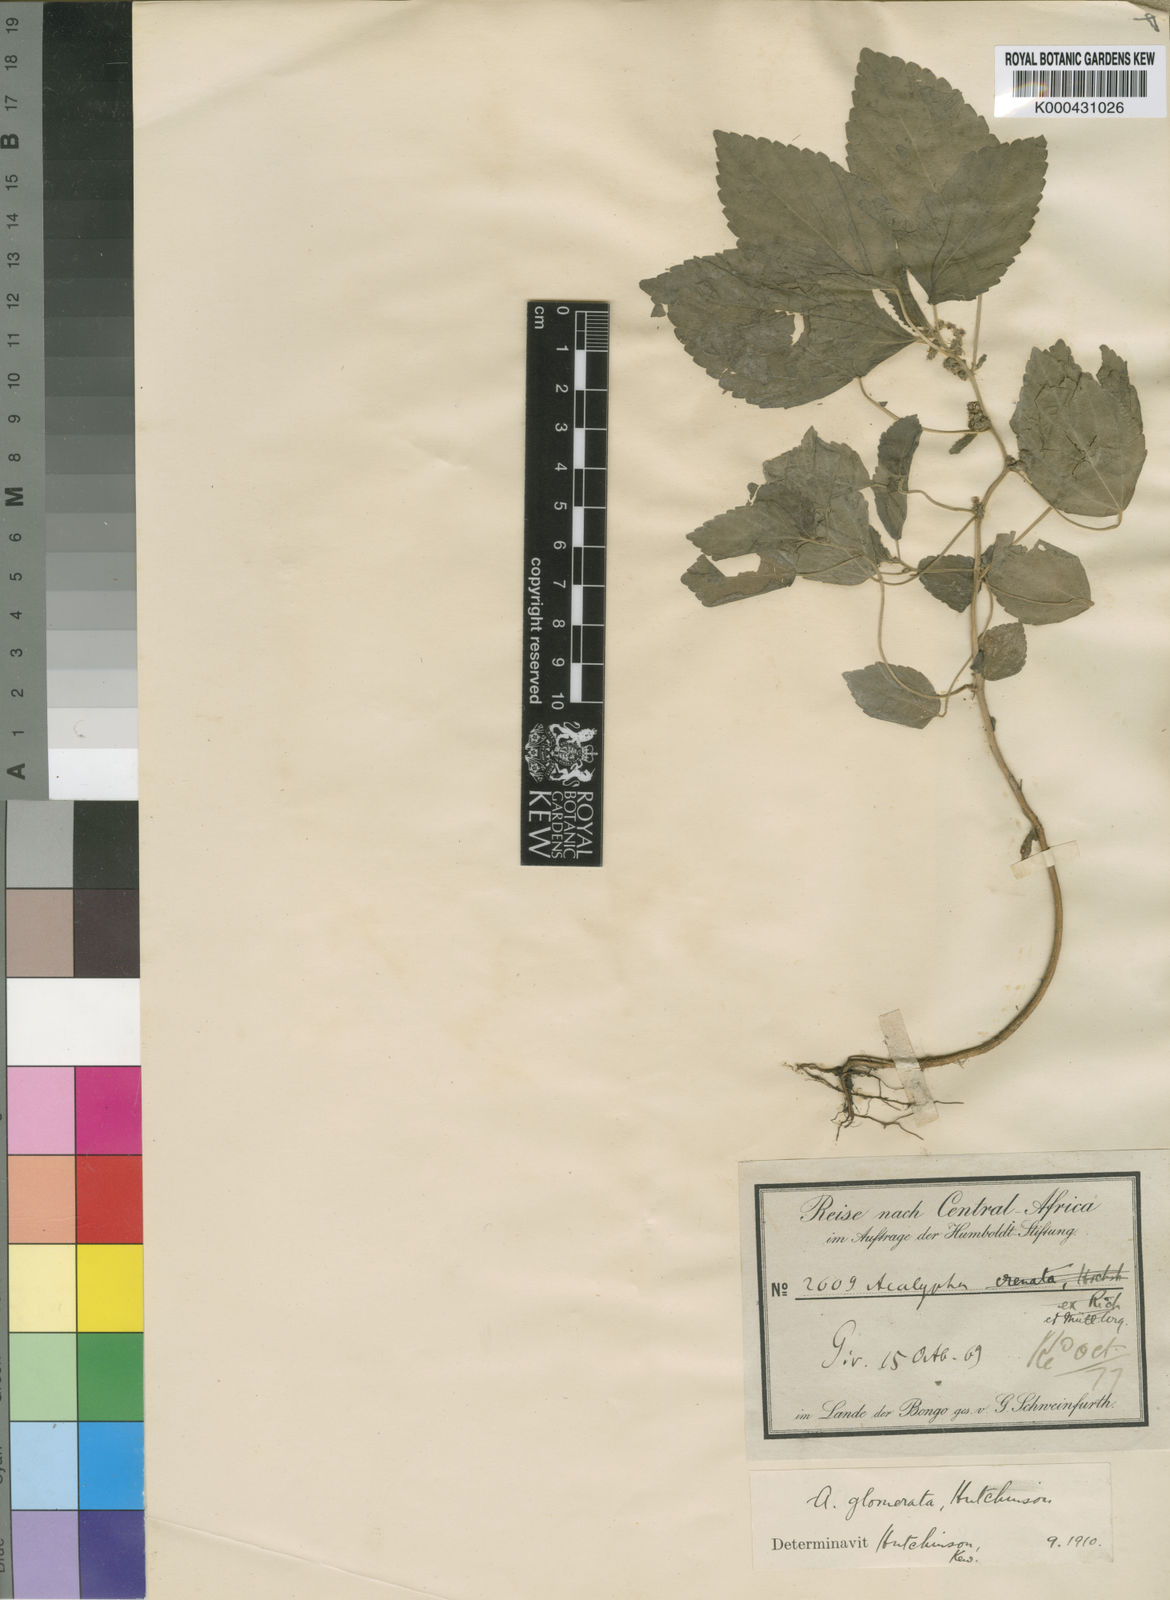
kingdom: Plantae
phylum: Tracheophyta
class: Magnoliopsida
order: Malpighiales
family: Euphorbiaceae
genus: Acalypha
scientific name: Acalypha lanceolata
